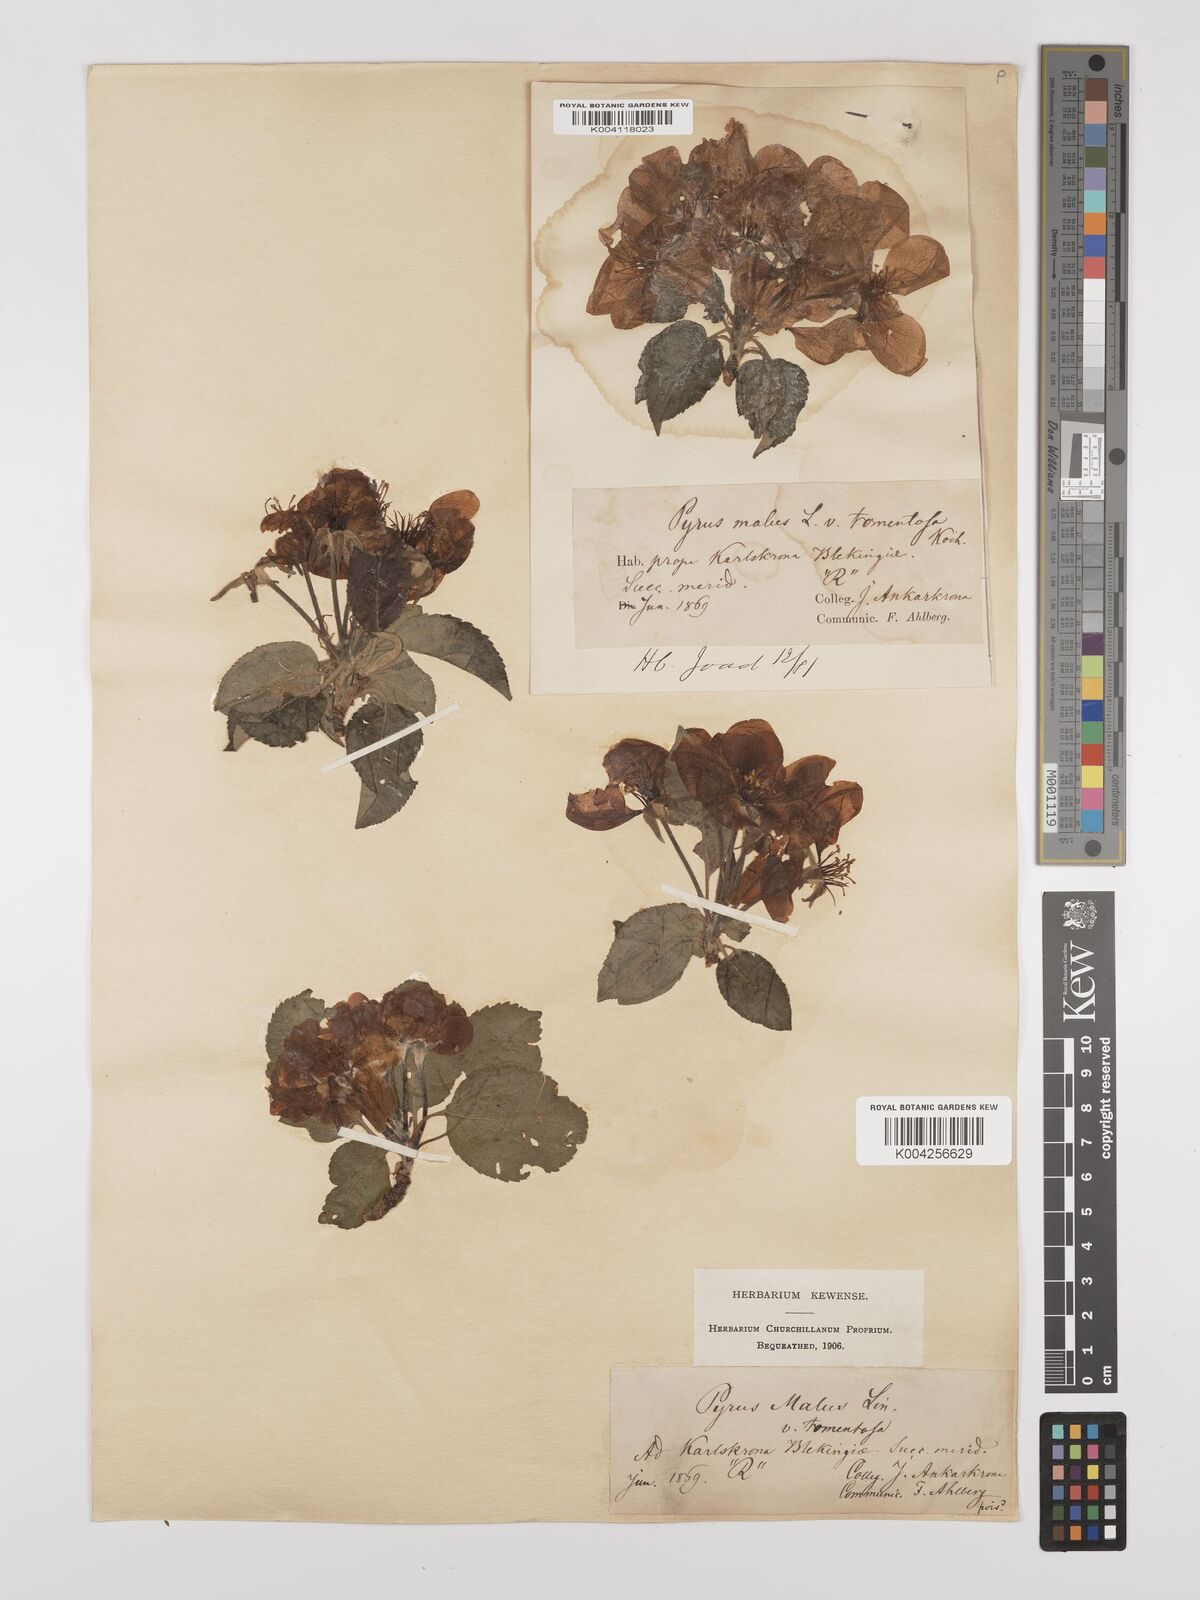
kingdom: Plantae
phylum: Tracheophyta
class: Magnoliopsida
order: Rosales
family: Rosaceae
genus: Malus
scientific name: Malus domestica
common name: Apple
